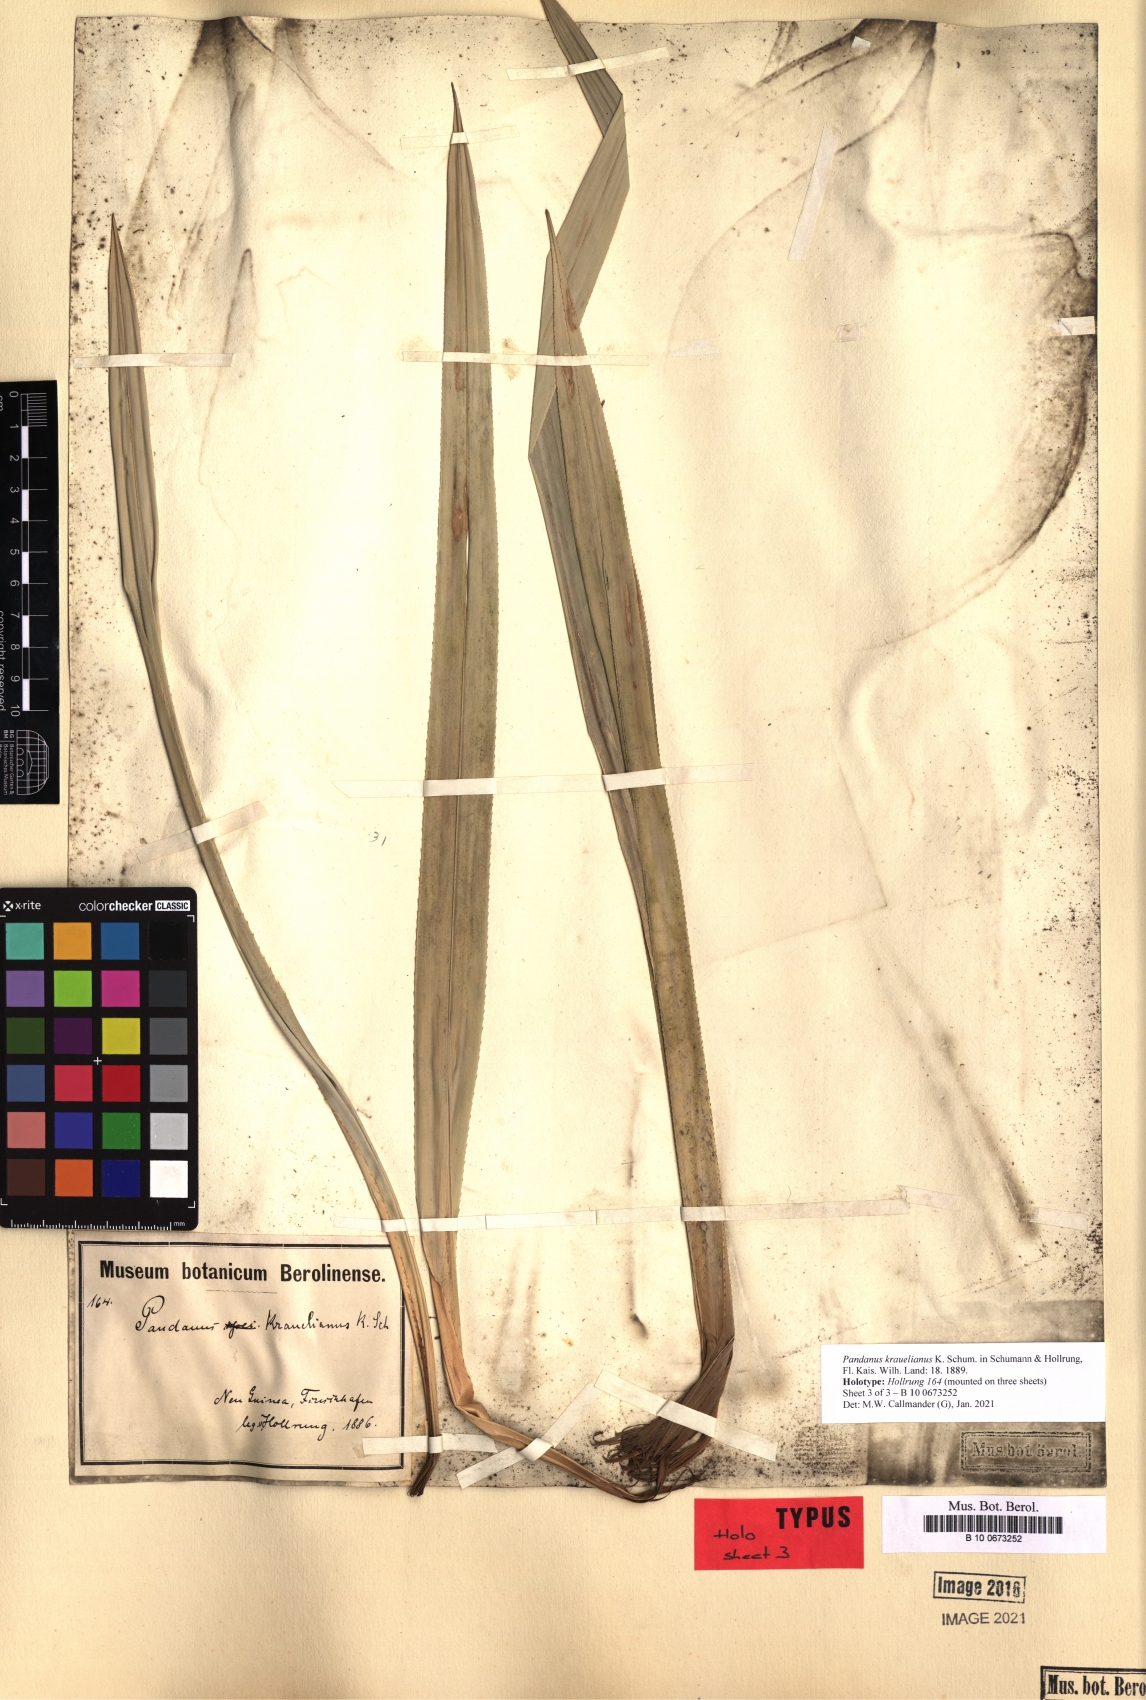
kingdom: Plantae
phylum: Tracheophyta
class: Liliopsida
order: Pandanales
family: Pandanaceae
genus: Pandanus
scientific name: Pandanus krauelianus
